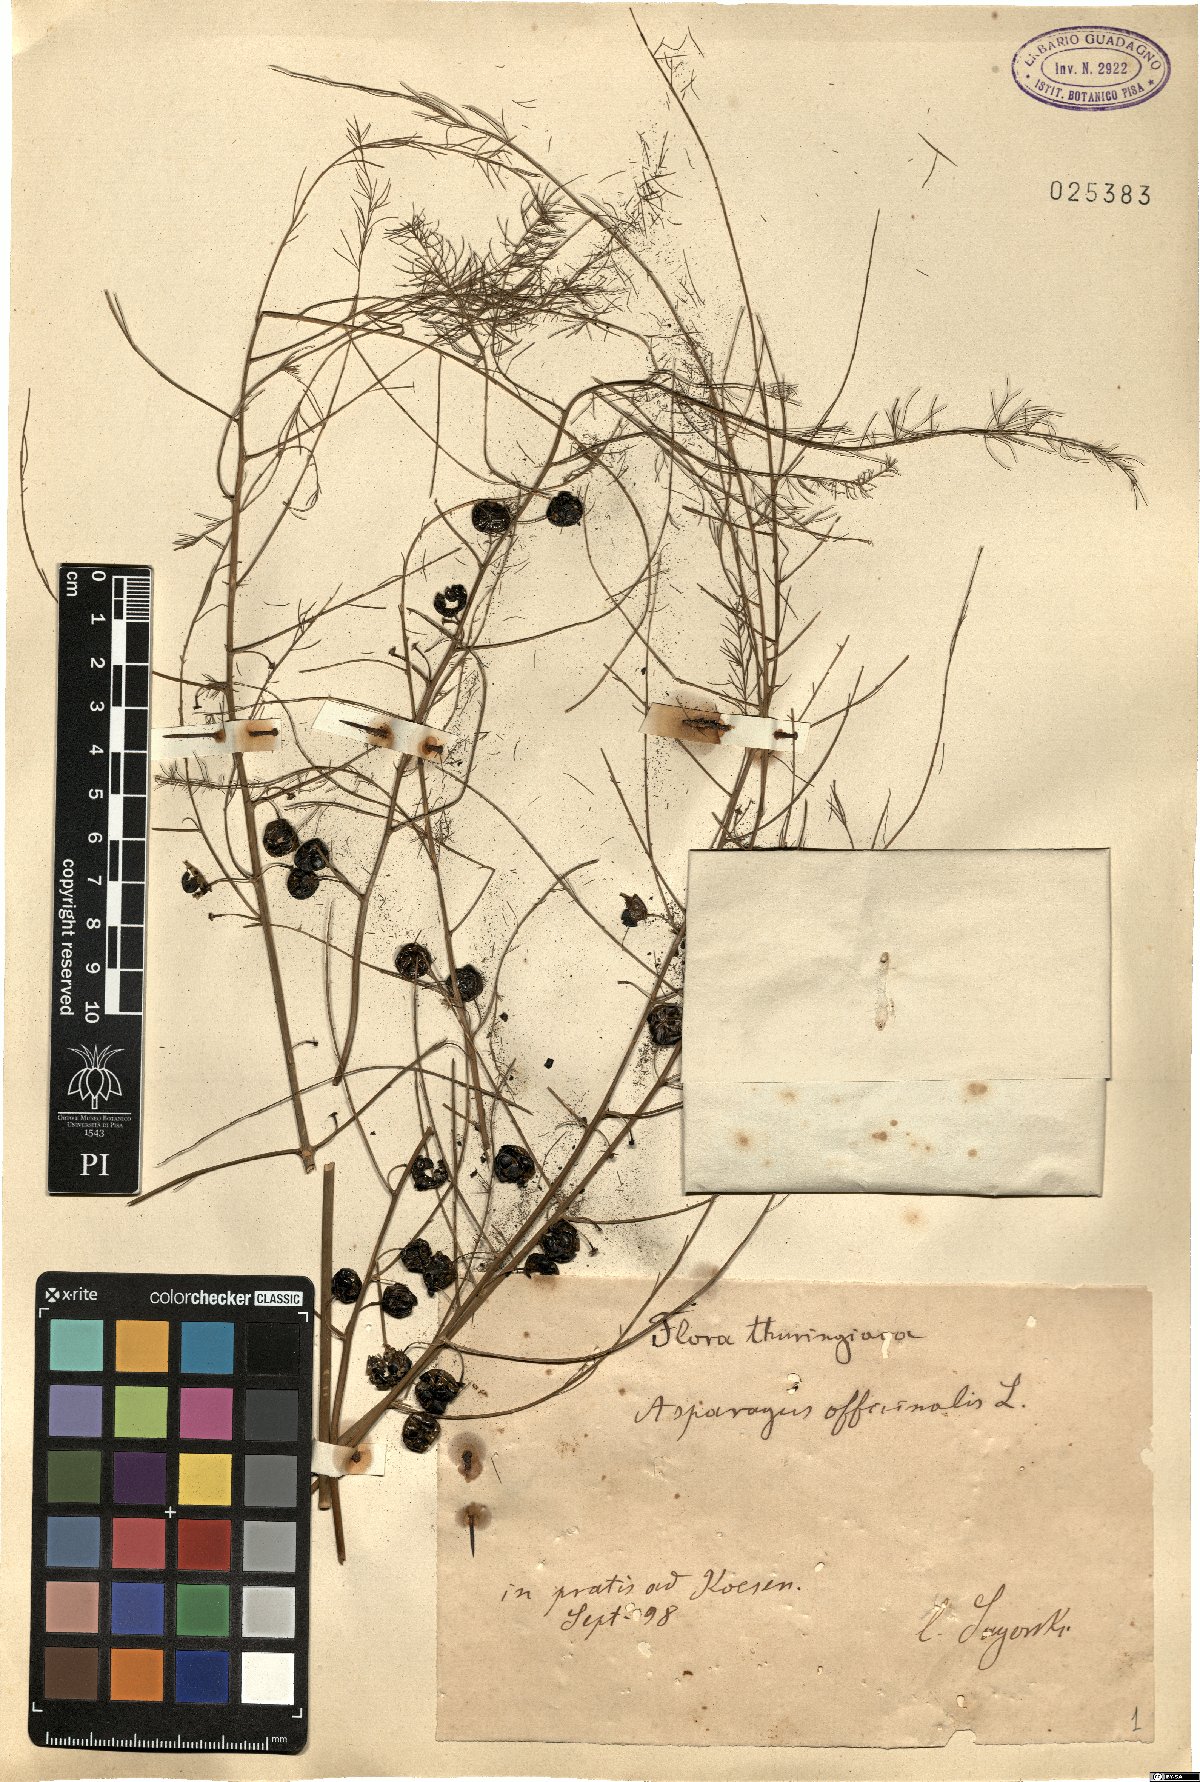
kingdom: Plantae
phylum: Tracheophyta
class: Liliopsida
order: Asparagales
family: Asparagaceae
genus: Asparagus
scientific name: Asparagus officinalis
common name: Garden asparagus
